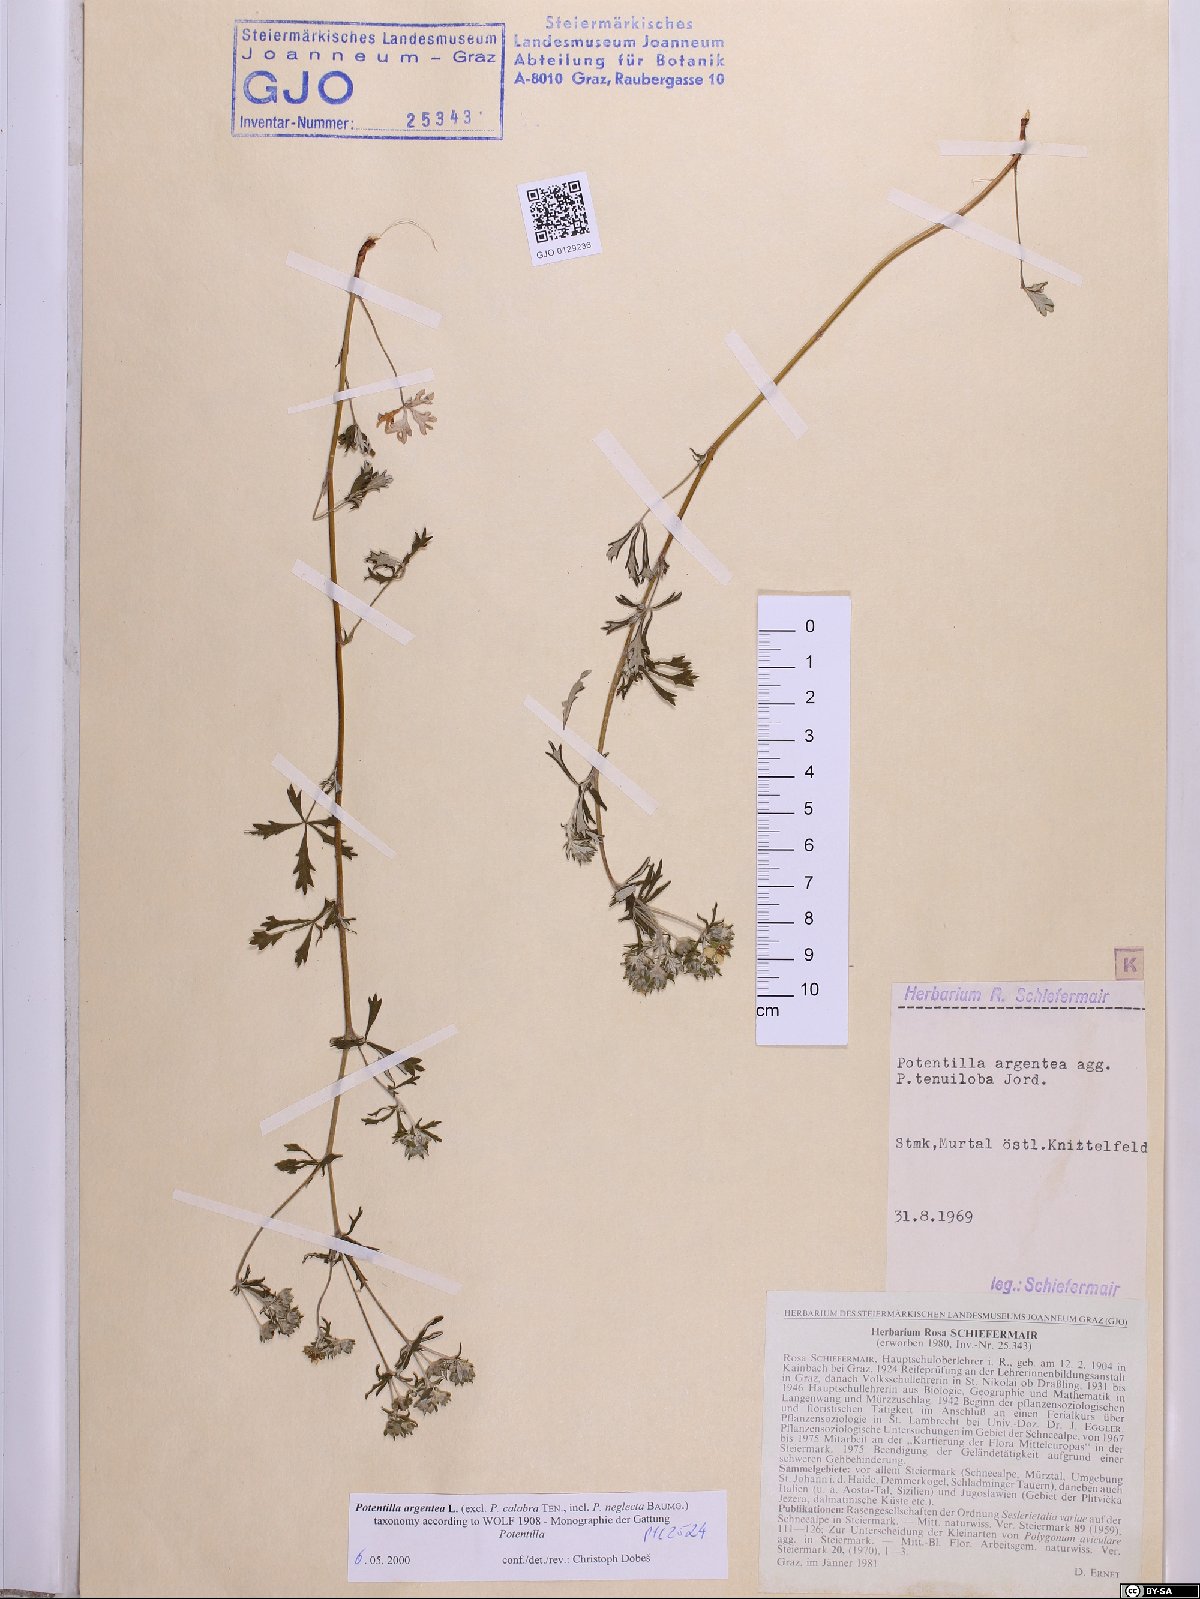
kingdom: Plantae
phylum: Tracheophyta
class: Magnoliopsida
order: Rosales
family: Rosaceae
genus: Potentilla
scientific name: Potentilla argentea
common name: Hoary cinquefoil
